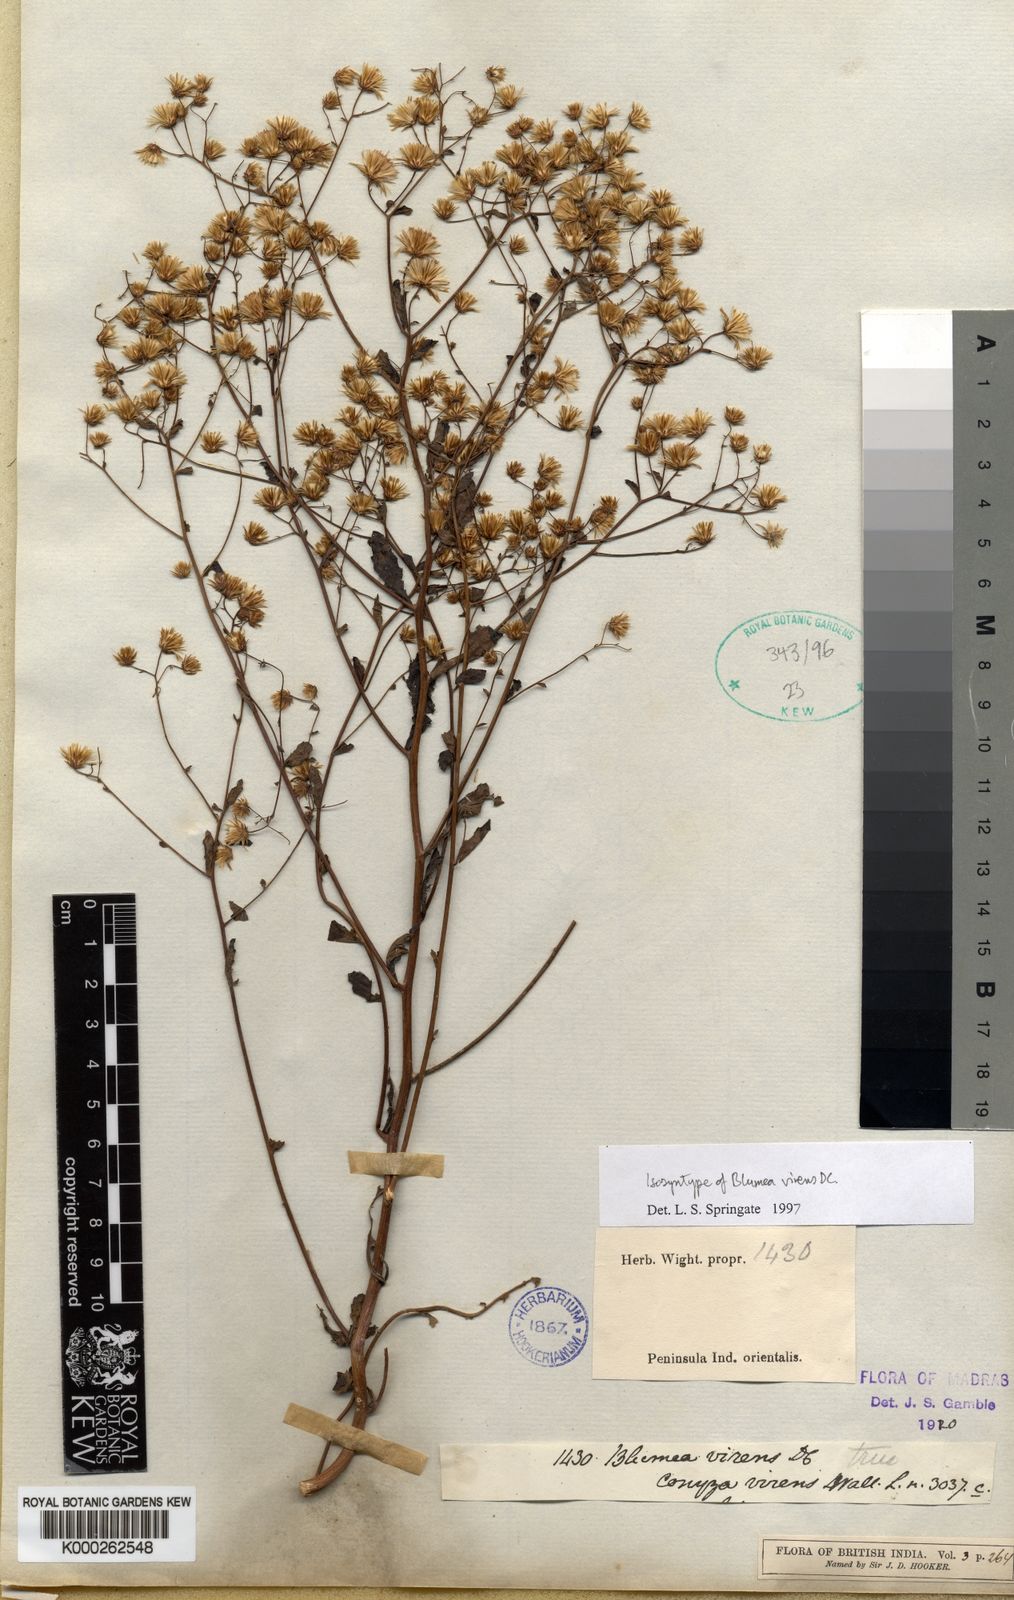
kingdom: Plantae
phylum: Tracheophyta
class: Magnoliopsida
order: Asterales
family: Asteraceae
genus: Blumea
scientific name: Blumea virens
